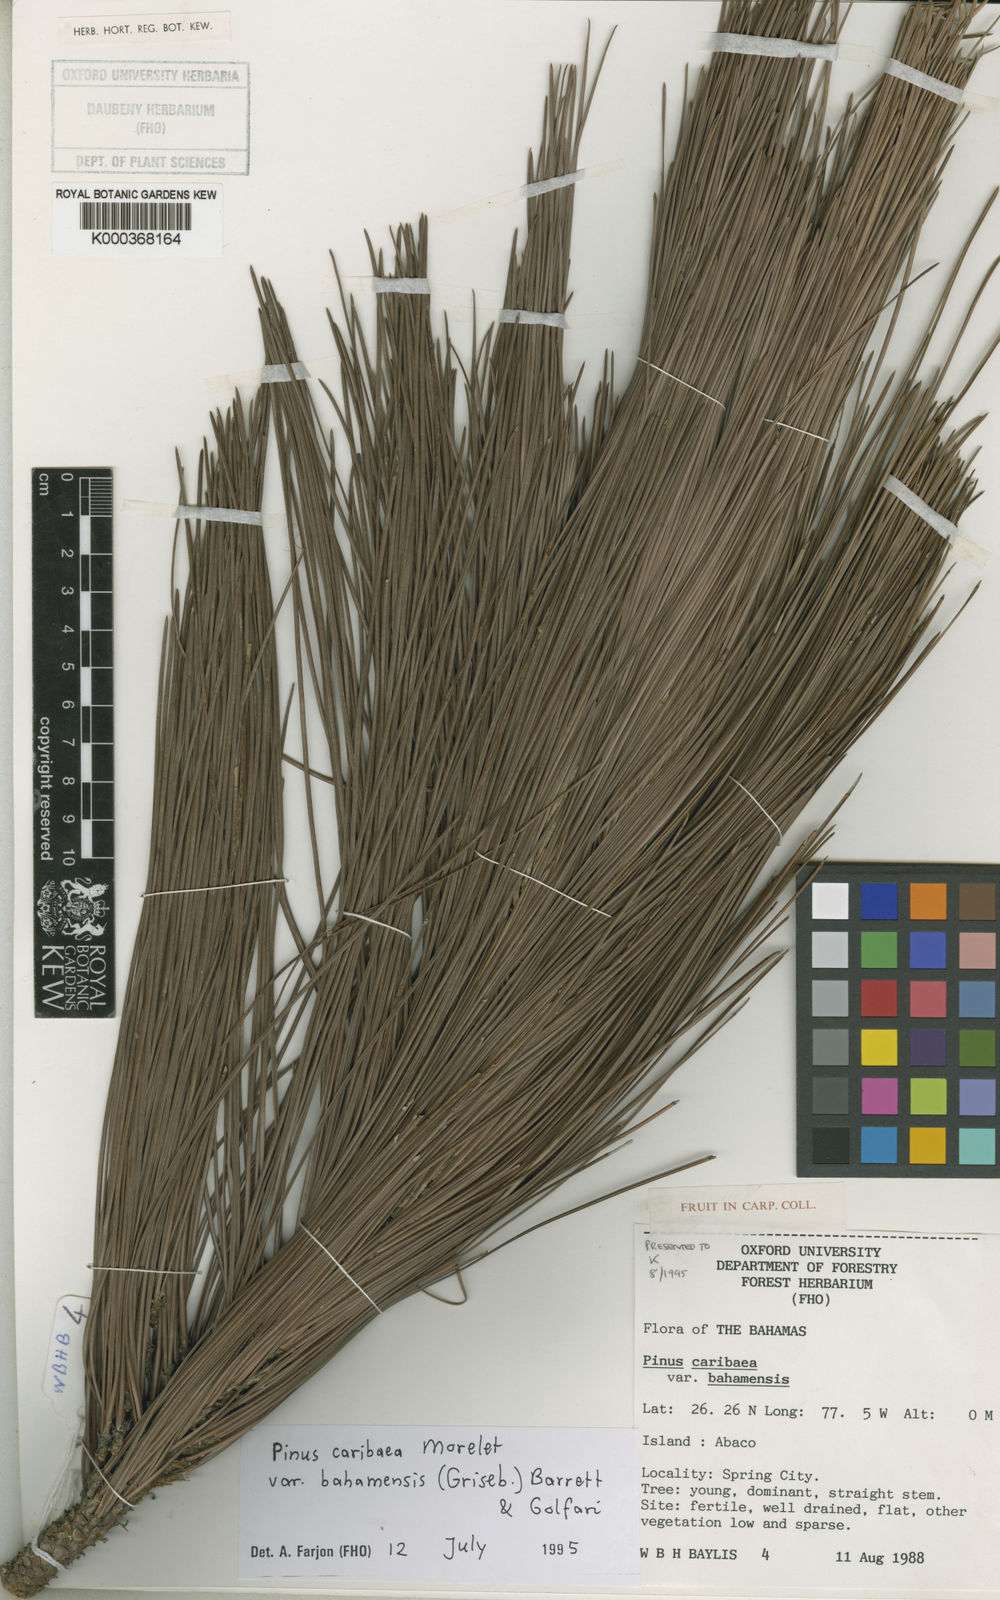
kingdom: Plantae
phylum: Tracheophyta
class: Pinopsida
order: Pinales
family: Pinaceae
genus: Pinus
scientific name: Pinus caribaea
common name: Caribbean pine
